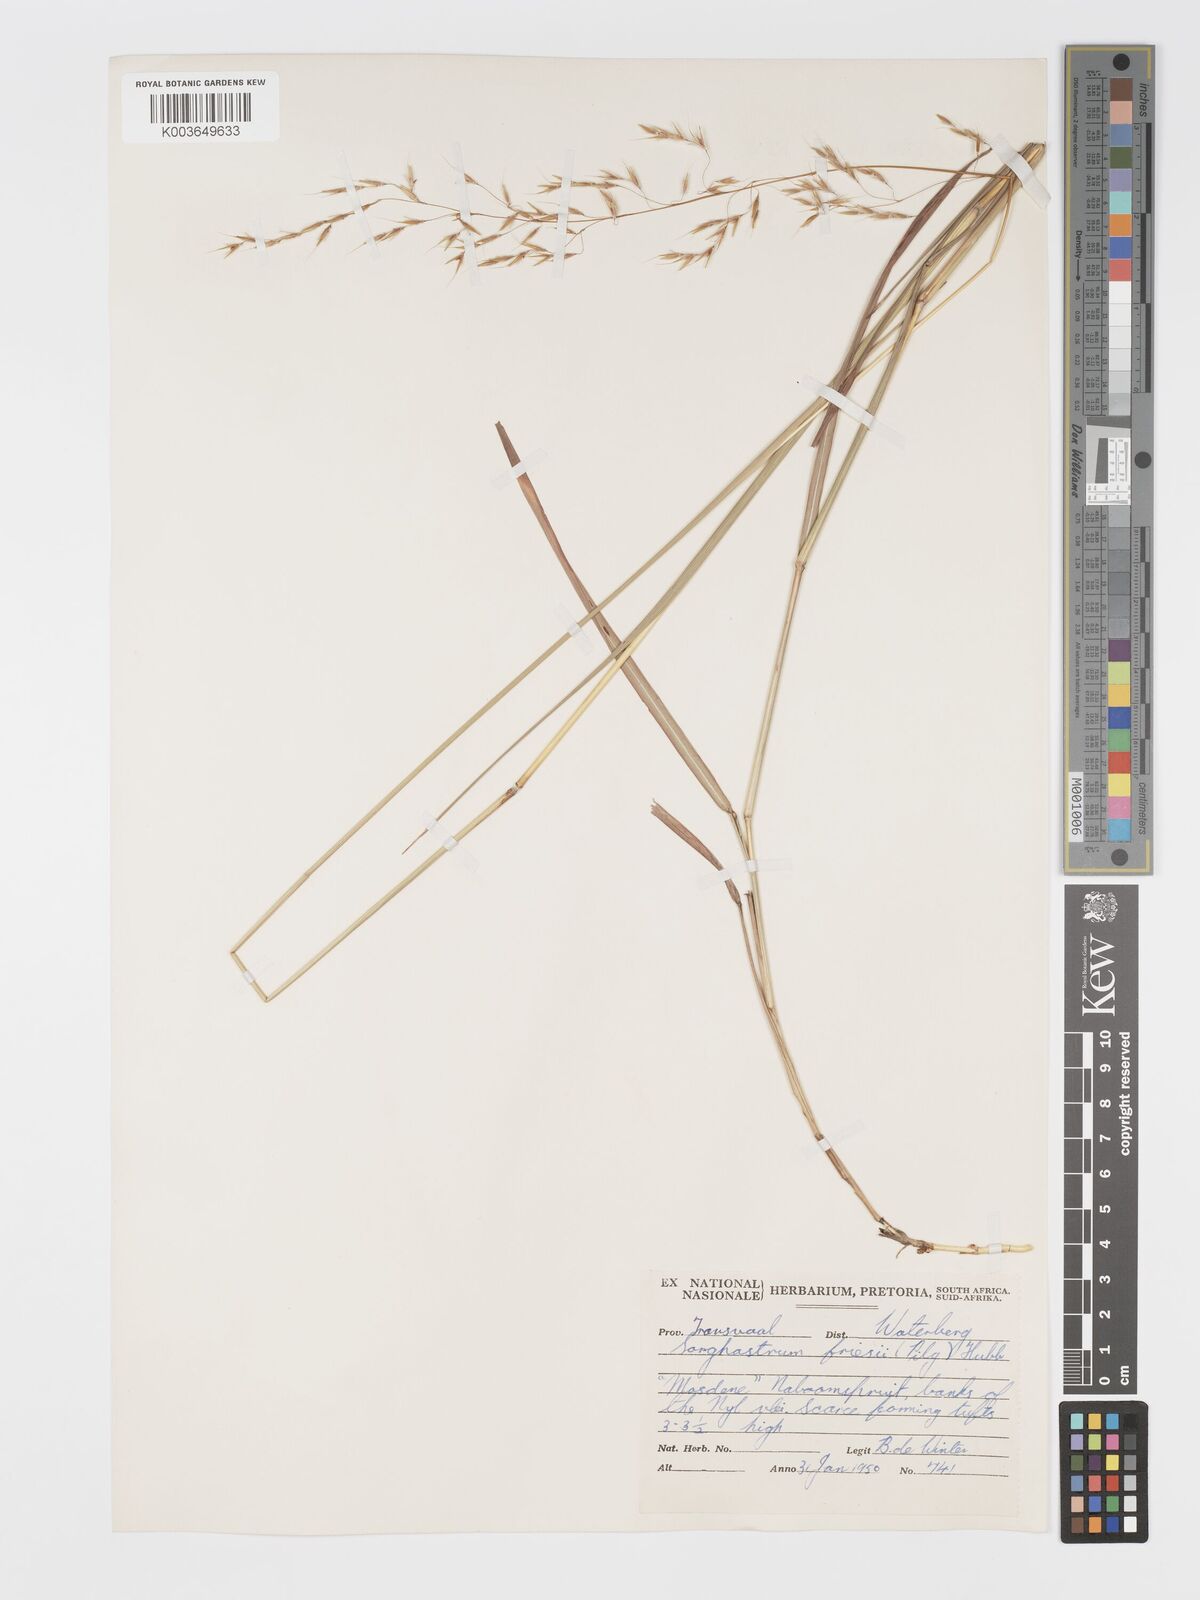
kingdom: Plantae
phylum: Tracheophyta
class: Liliopsida
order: Poales
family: Poaceae
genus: Sorghastrum
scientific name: Sorghastrum nudipes
